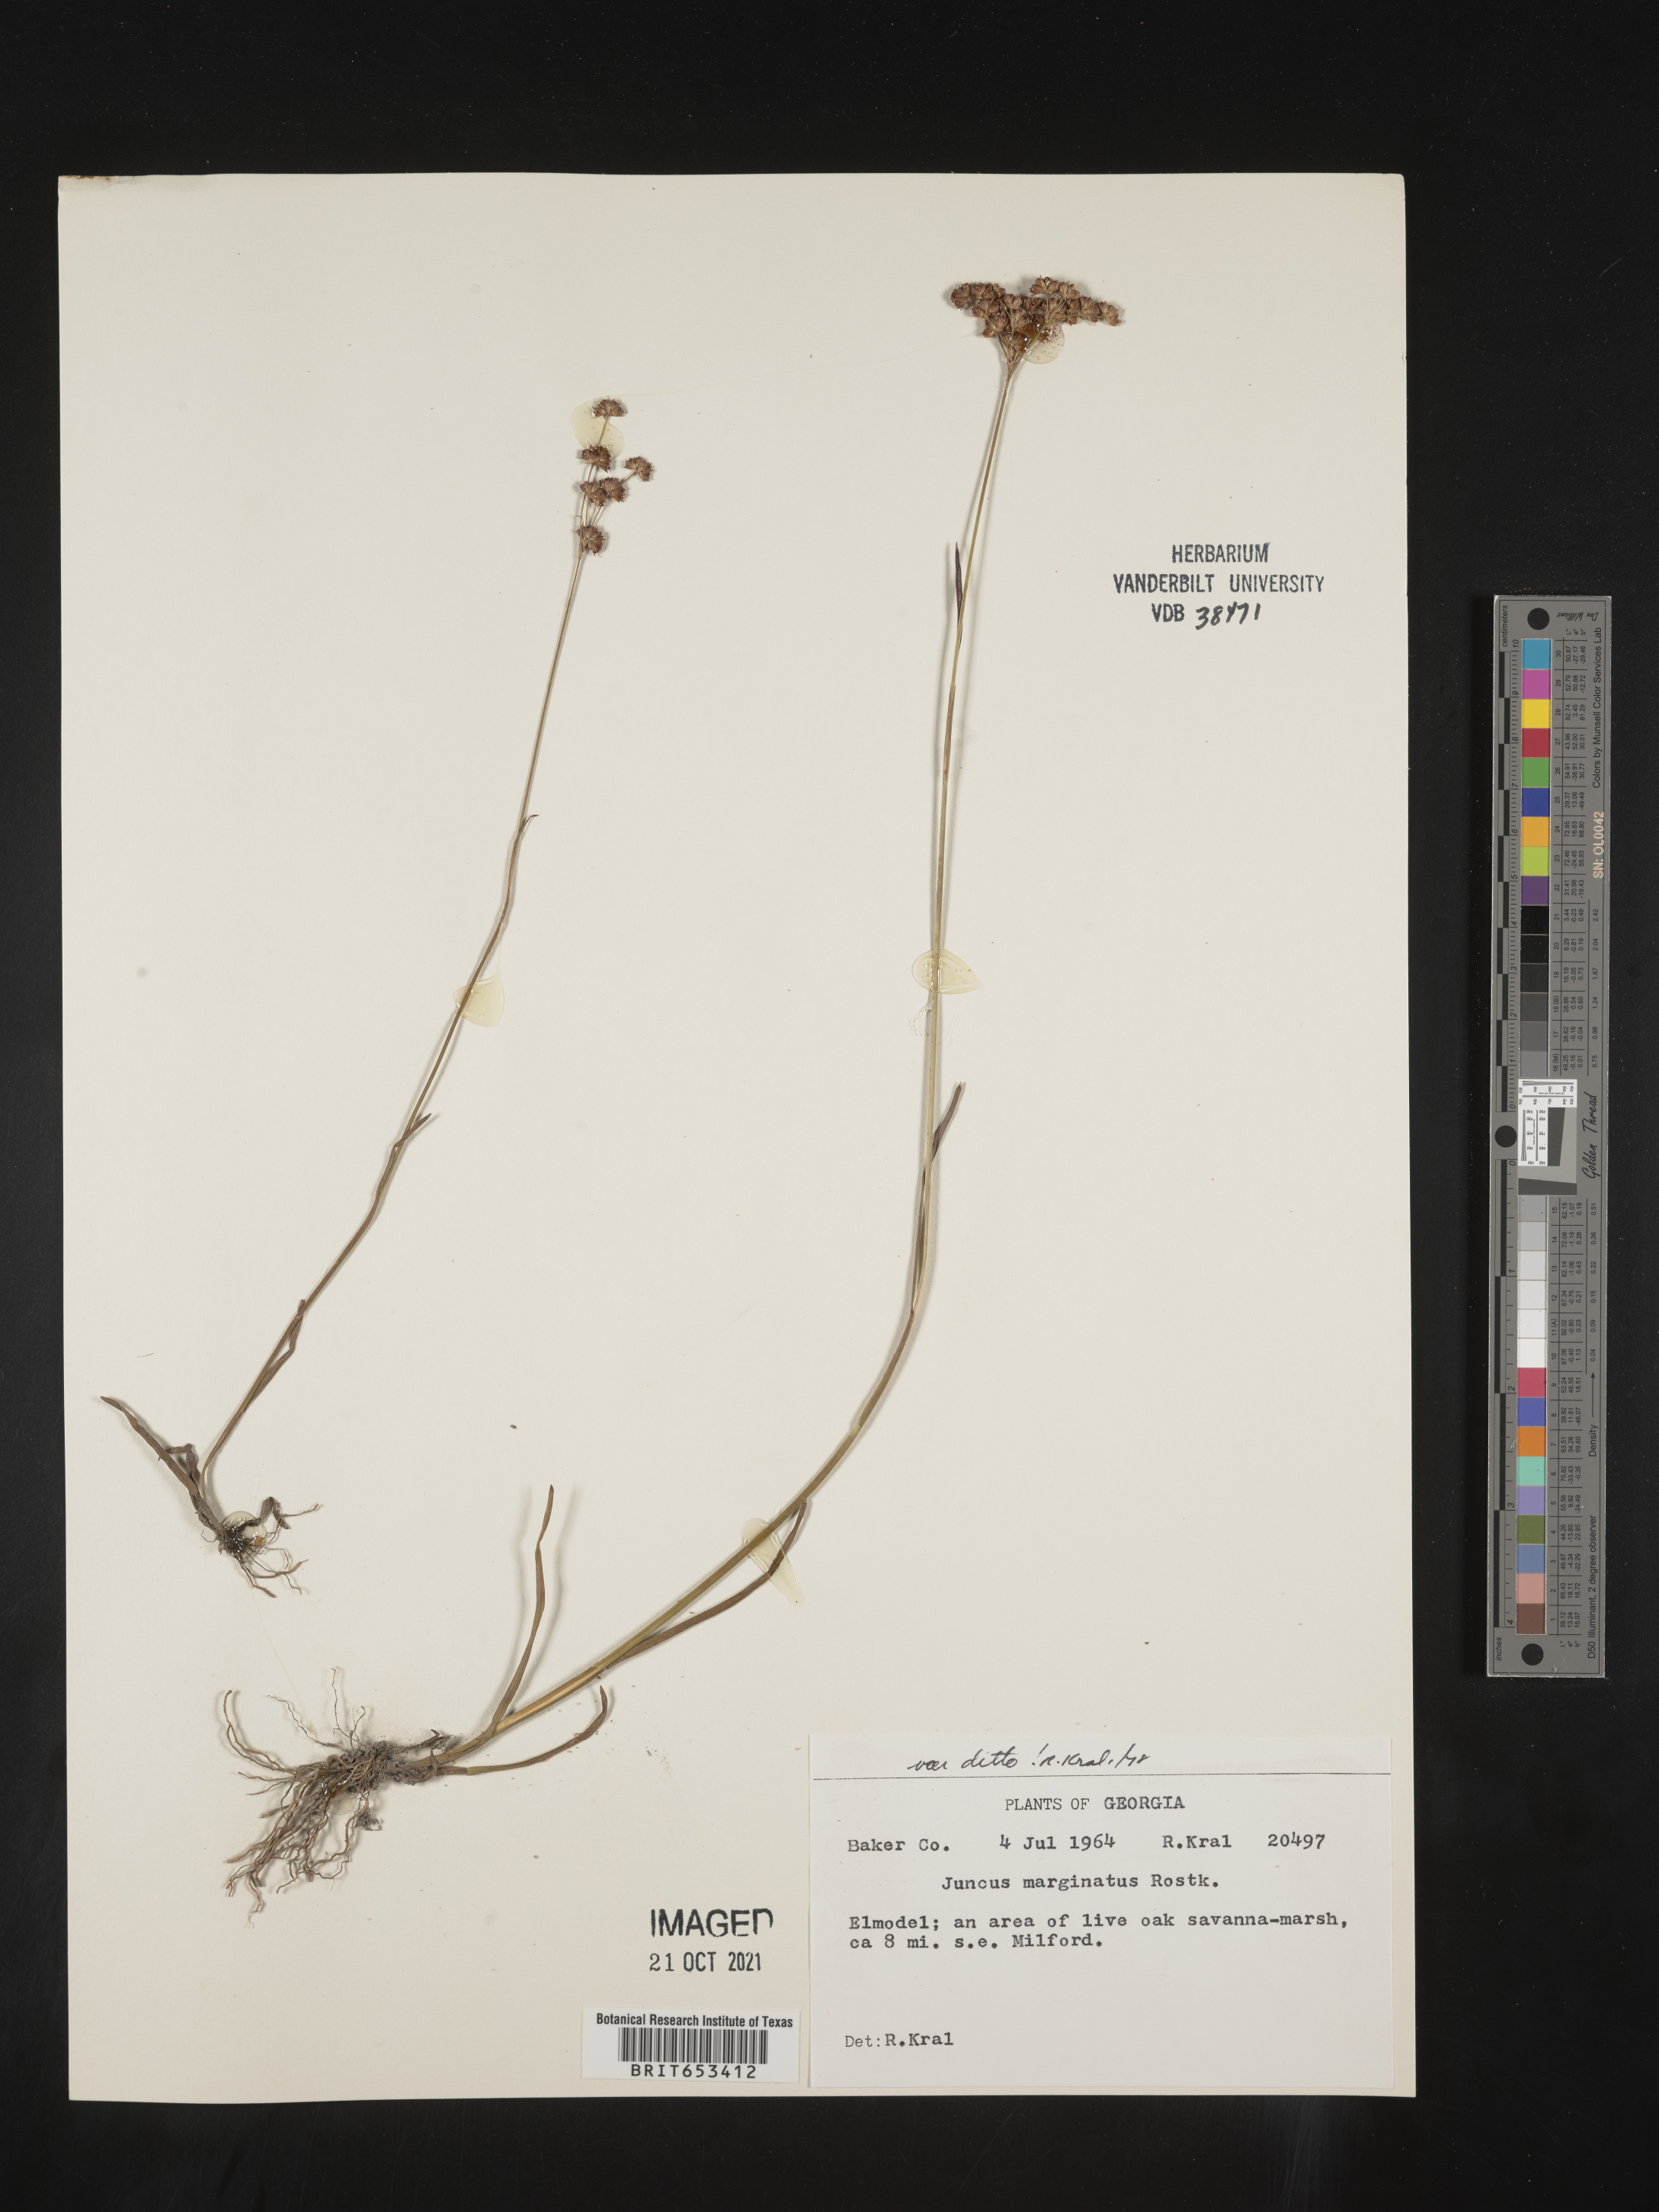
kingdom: Plantae
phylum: Tracheophyta
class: Liliopsida
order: Poales
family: Juncaceae
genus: Juncus
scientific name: Juncus marginatus
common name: Grass-leaf rush
